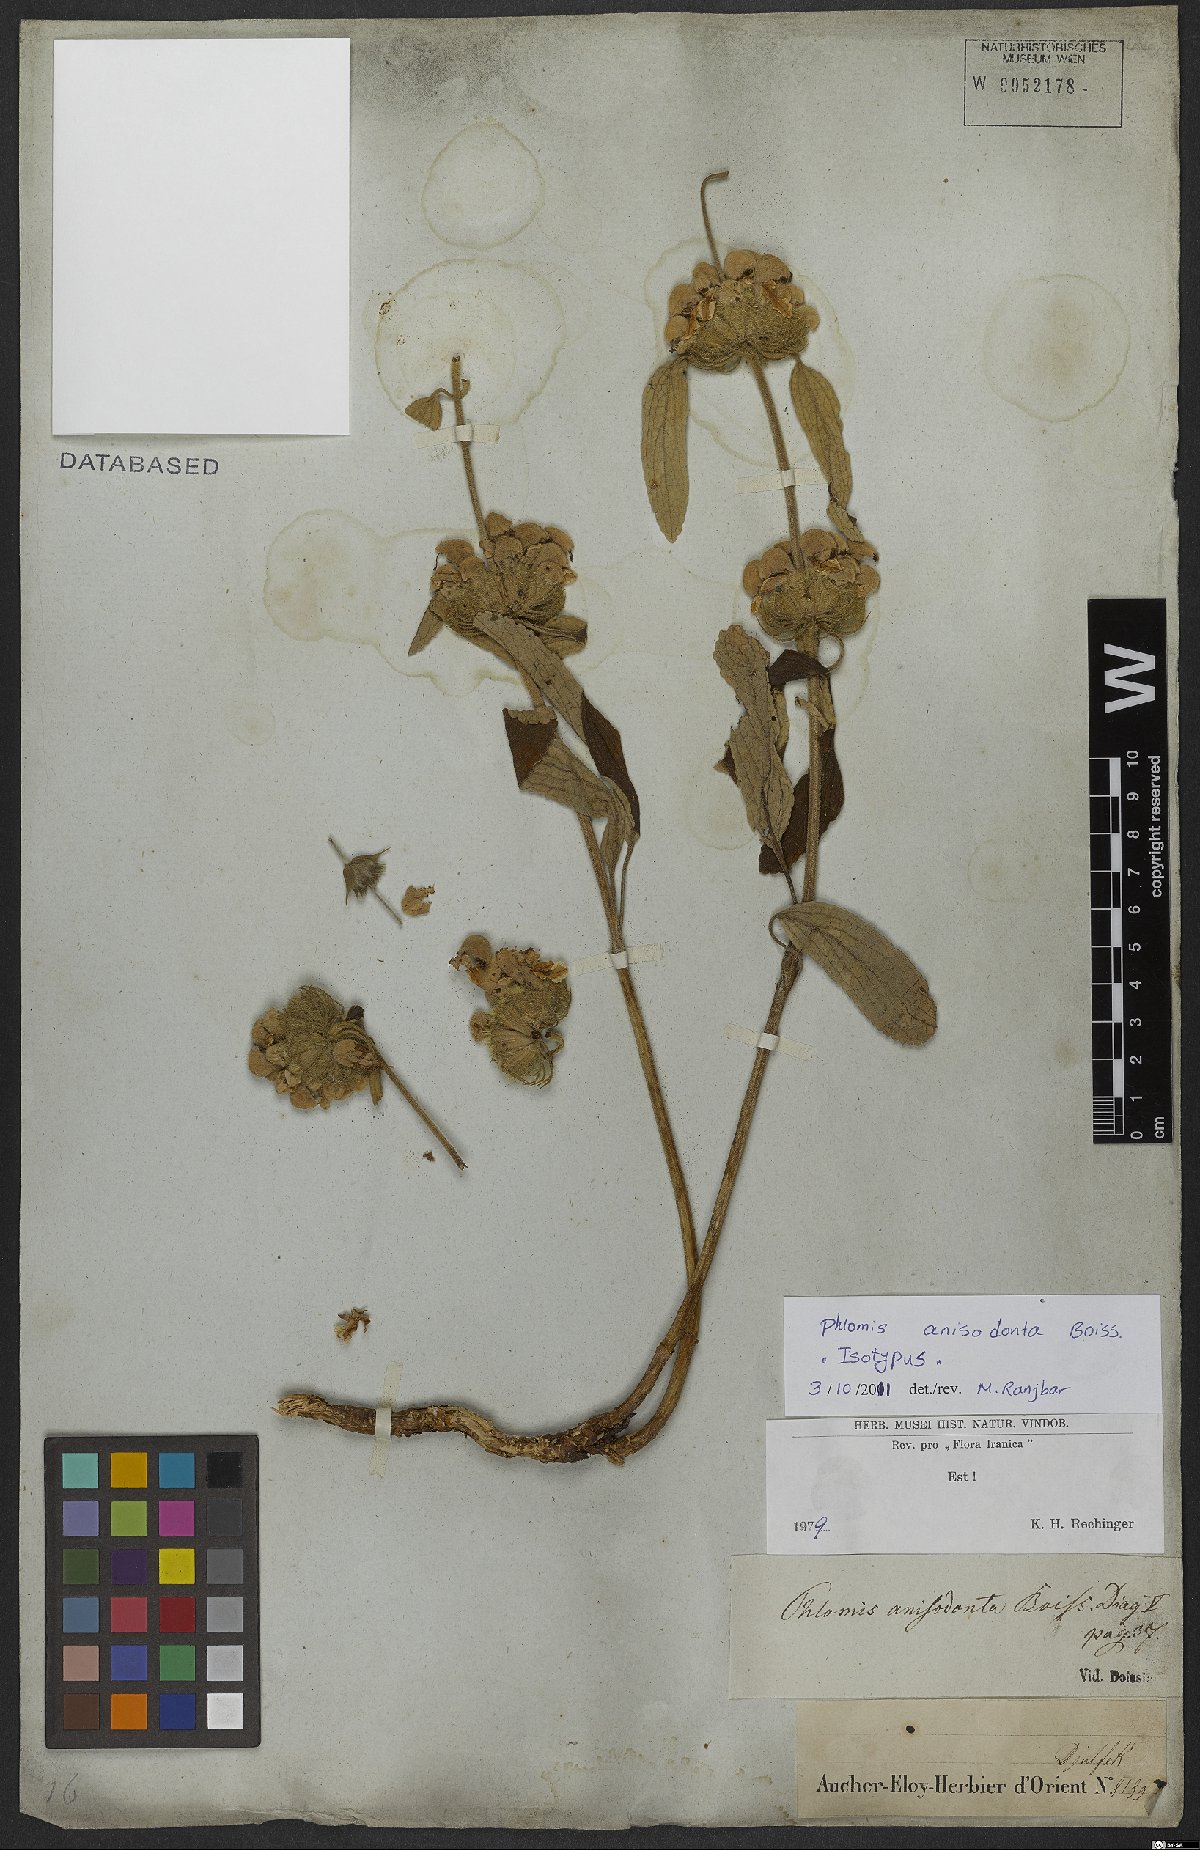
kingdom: Plantae
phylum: Tracheophyta
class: Magnoliopsida
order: Lamiales
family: Lamiaceae
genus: Phlomis
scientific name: Phlomis anisodonta
